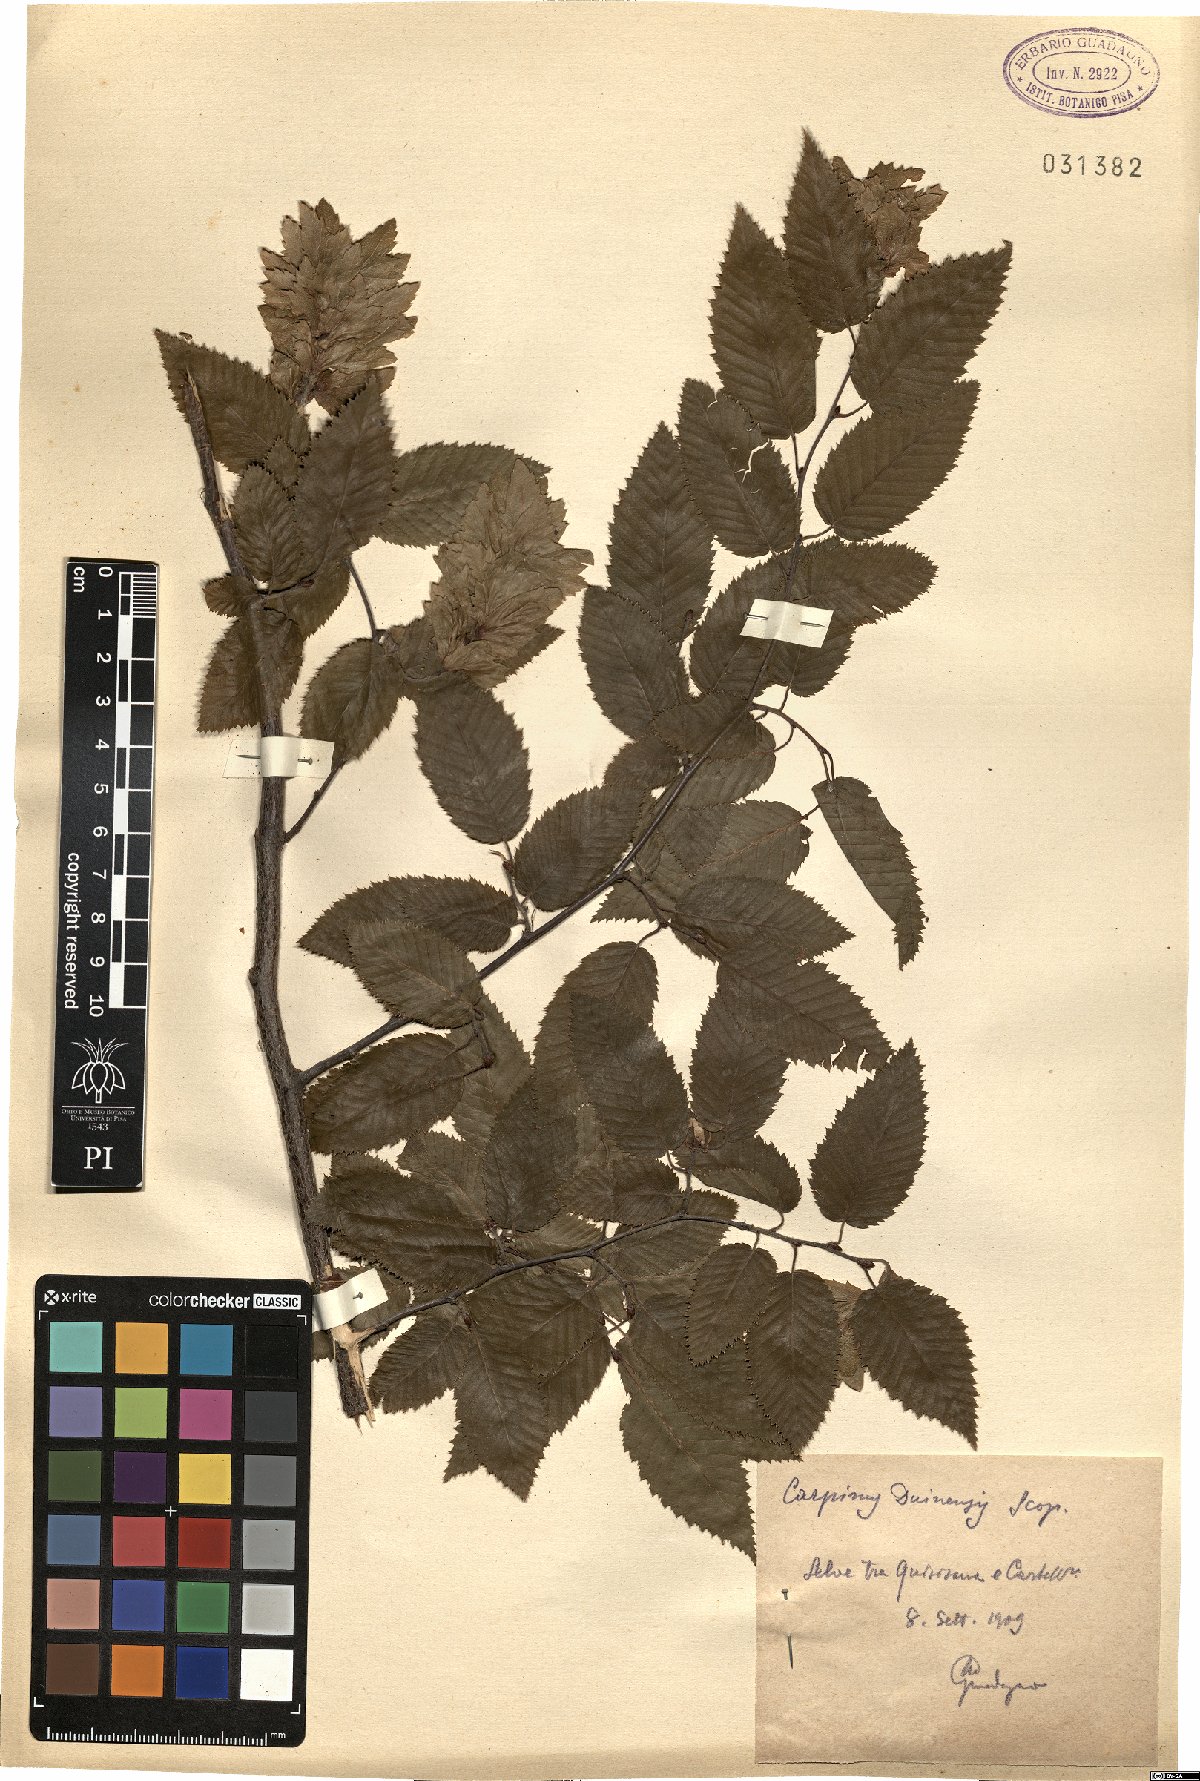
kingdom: Plantae
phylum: Tracheophyta
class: Magnoliopsida
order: Fagales
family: Betulaceae
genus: Carpinus
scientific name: Carpinus orientalis
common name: Eastern hornbeam
